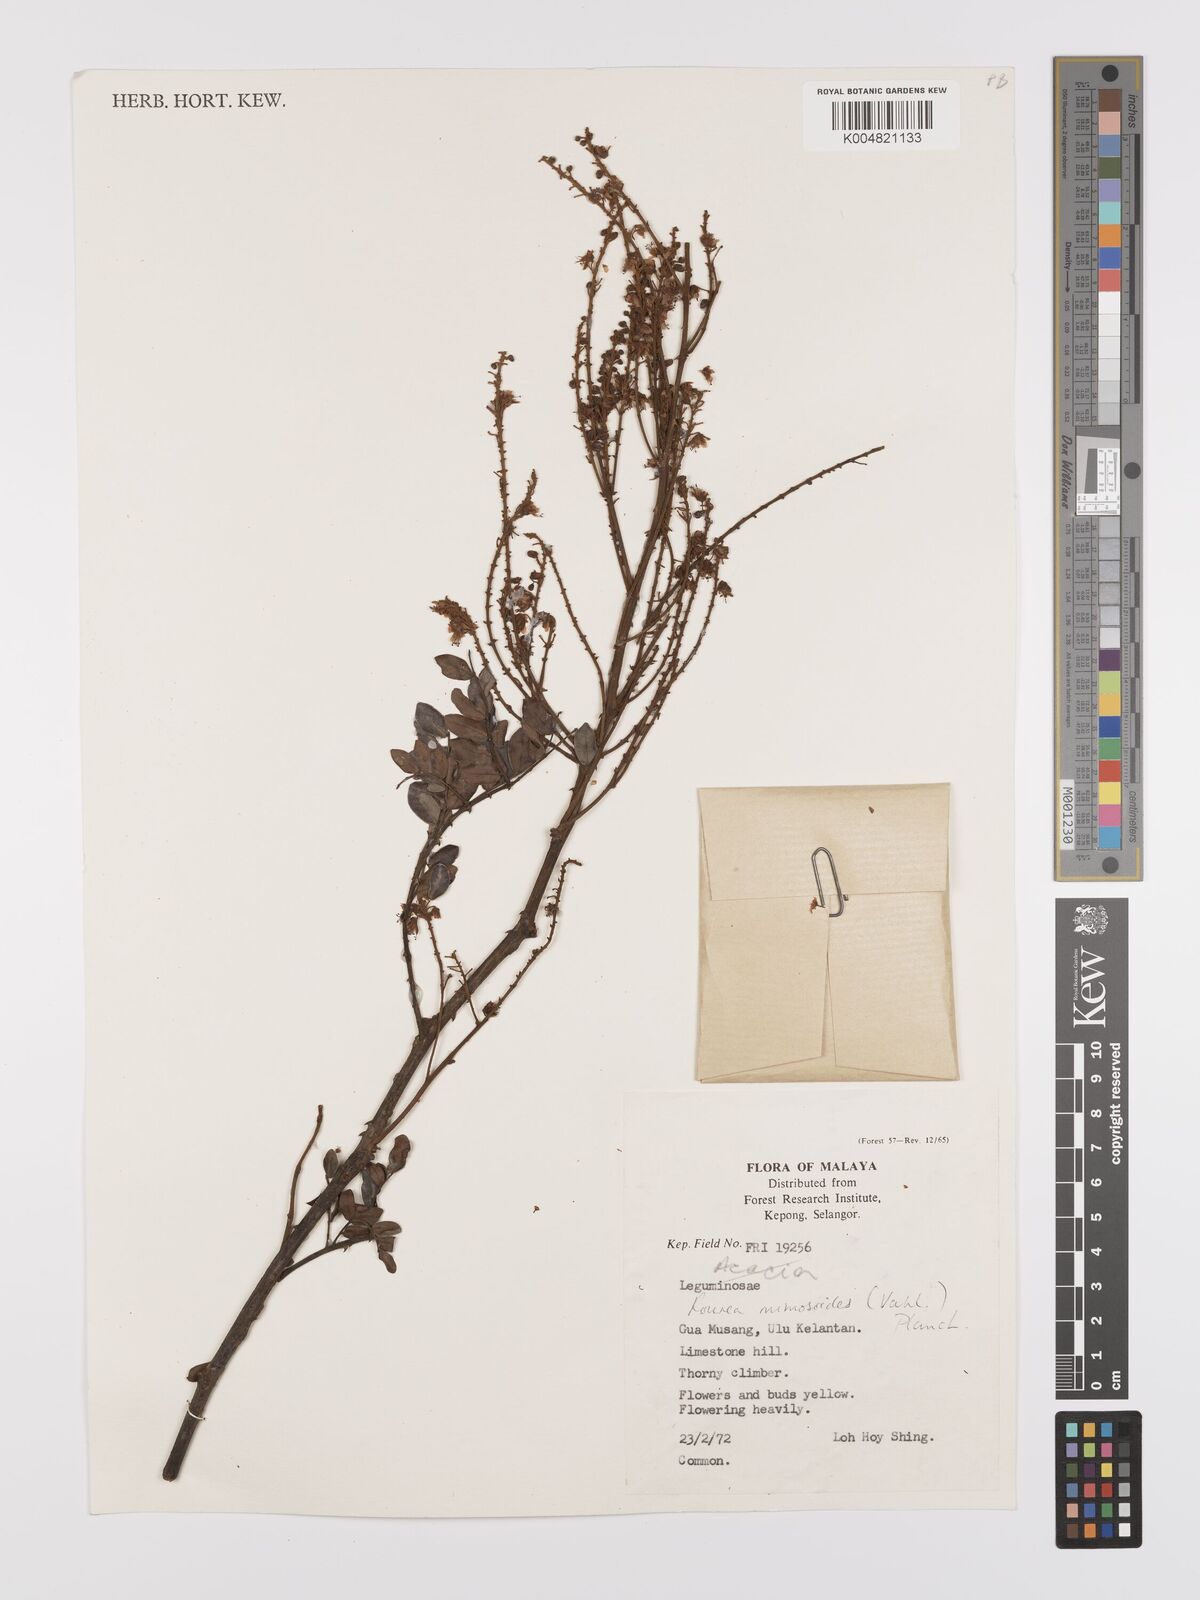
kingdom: Plantae
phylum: Tracheophyta
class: Magnoliopsida
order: Oxalidales
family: Connaraceae
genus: Rourea
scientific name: Rourea mimosoides
